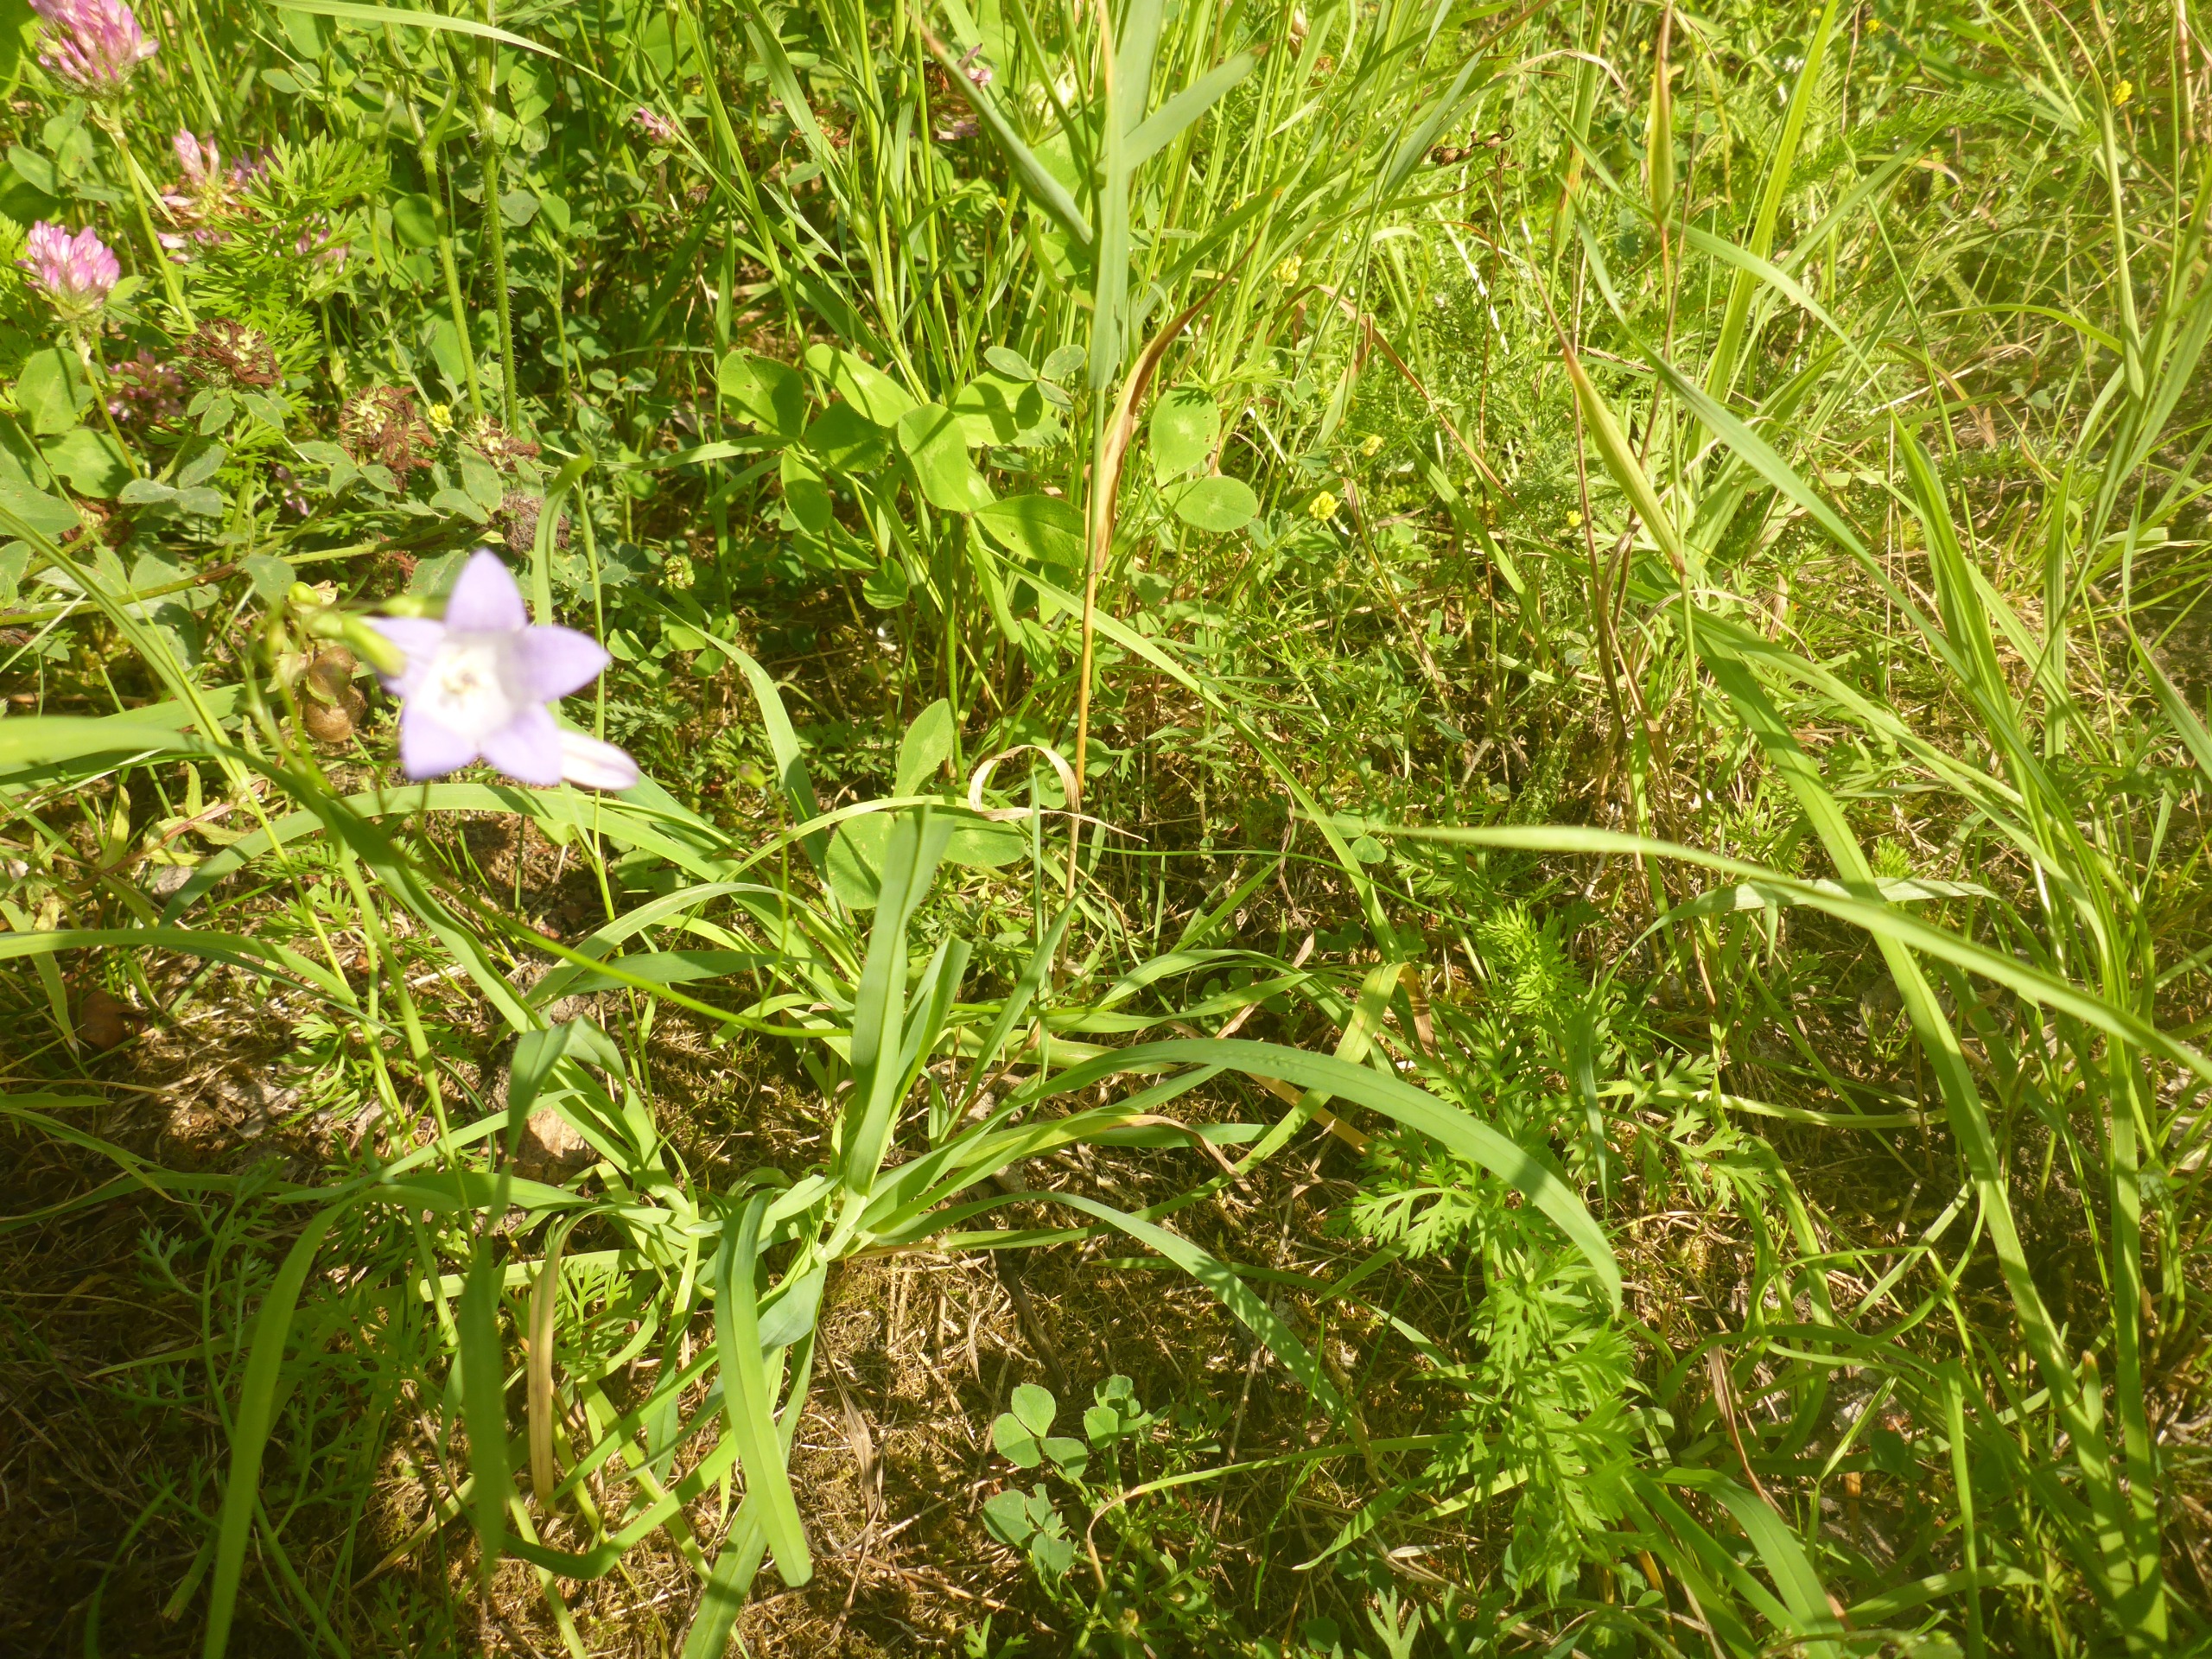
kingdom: Plantae
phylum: Tracheophyta
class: Magnoliopsida
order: Asterales
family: Campanulaceae
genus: Campanula
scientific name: Campanula rotundifolia
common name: Liden klokke
